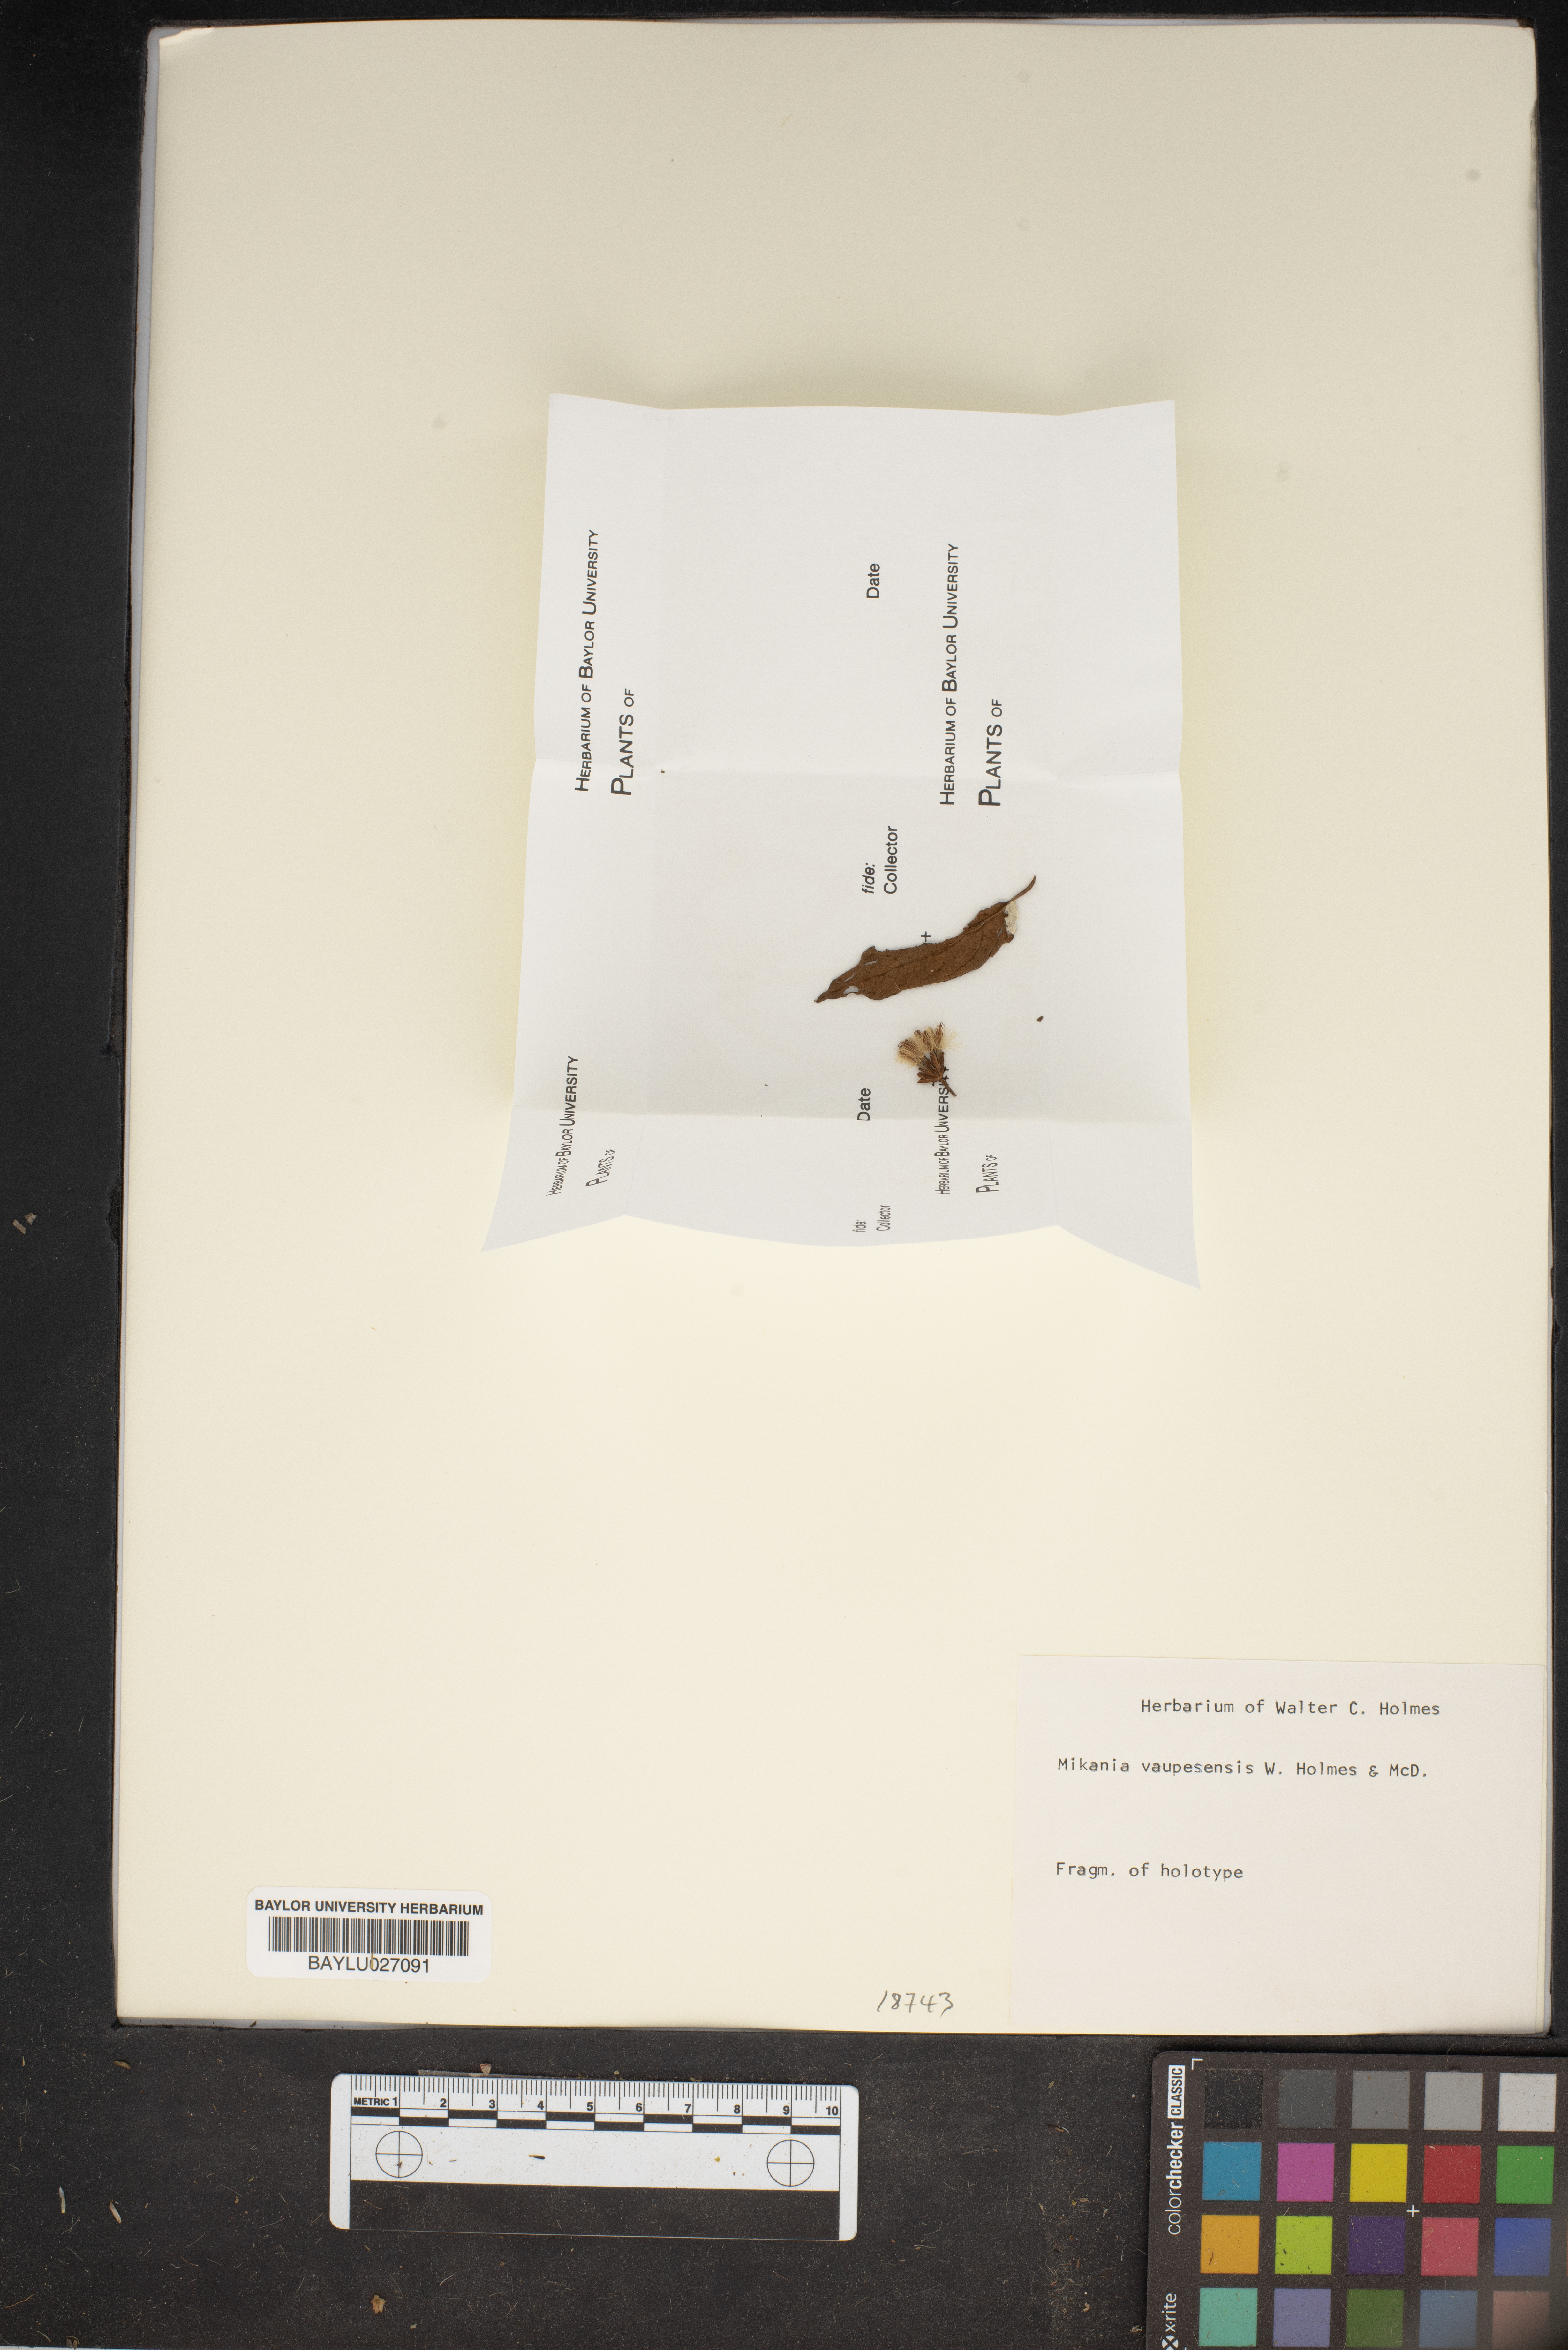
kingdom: Plantae
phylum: Tracheophyta
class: Magnoliopsida
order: Asterales
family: Asteraceae
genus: Mikania
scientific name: Mikania vaupesensis
